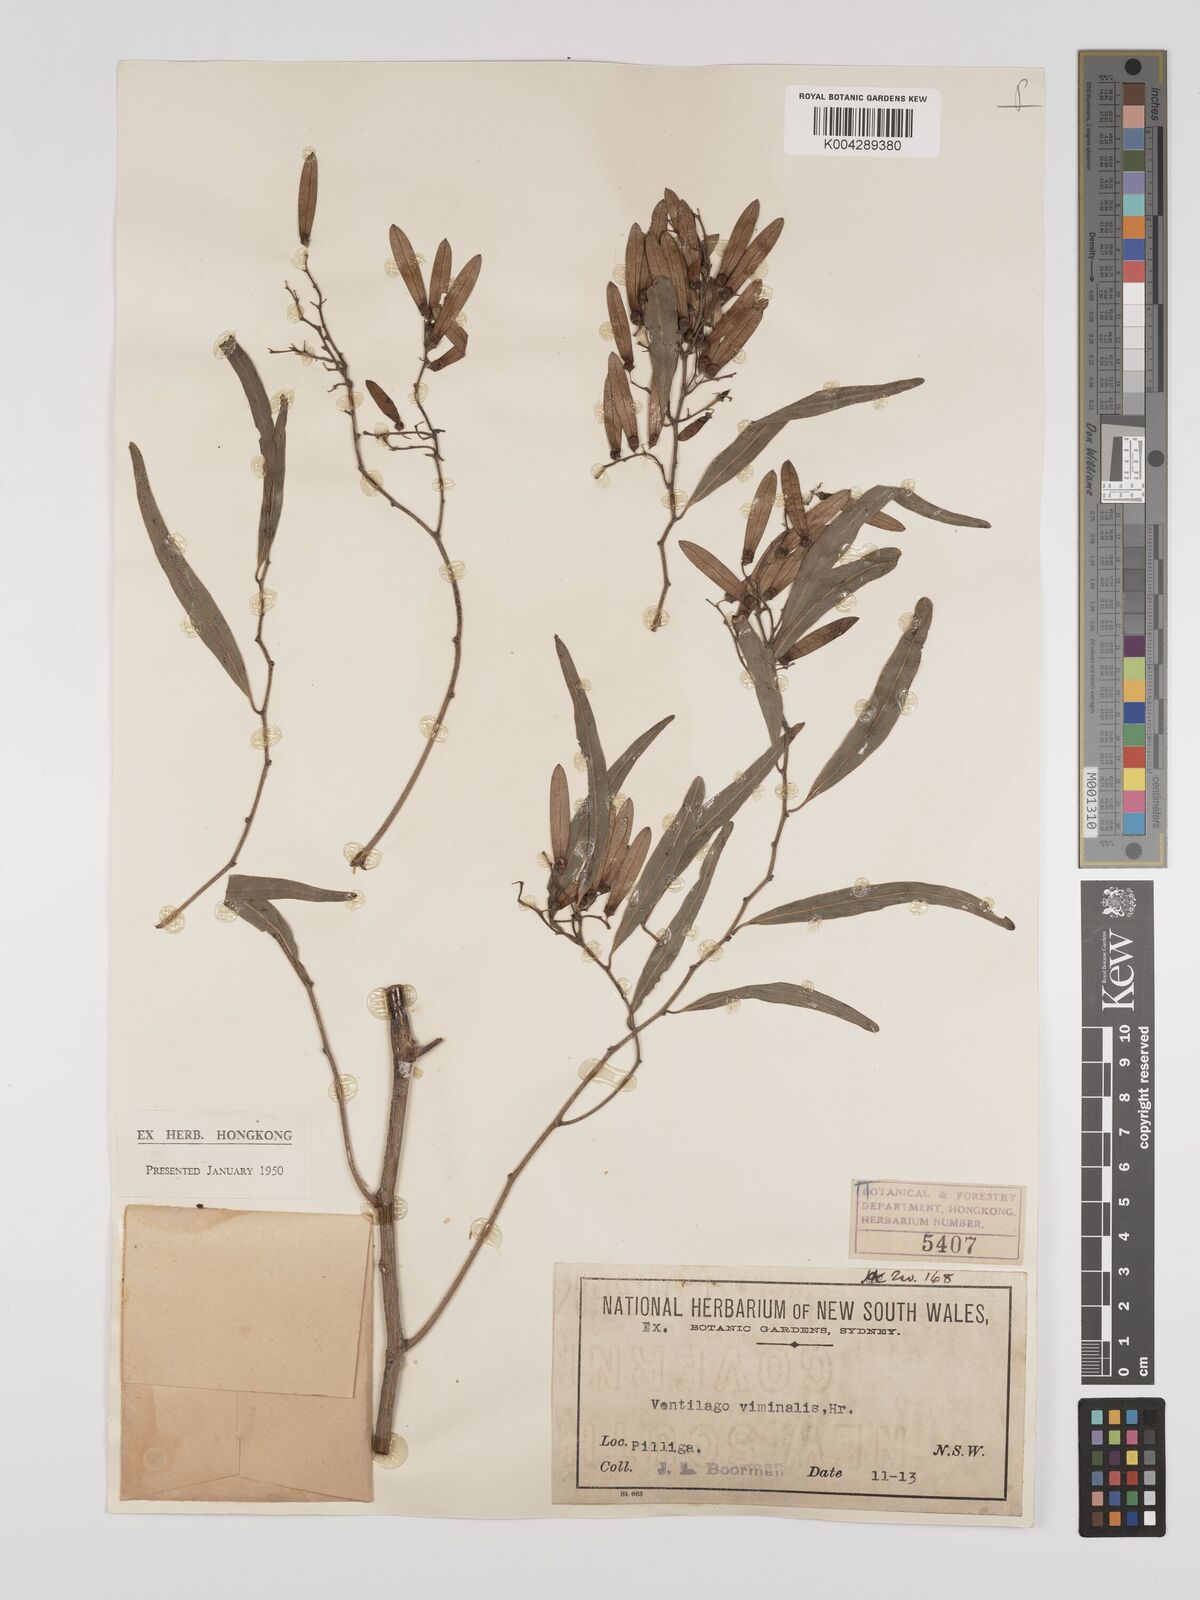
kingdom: Plantae
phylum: Tracheophyta
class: Magnoliopsida
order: Rosales
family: Rhamnaceae
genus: Ventilago
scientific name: Ventilago viminalis
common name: Medicine-bark
